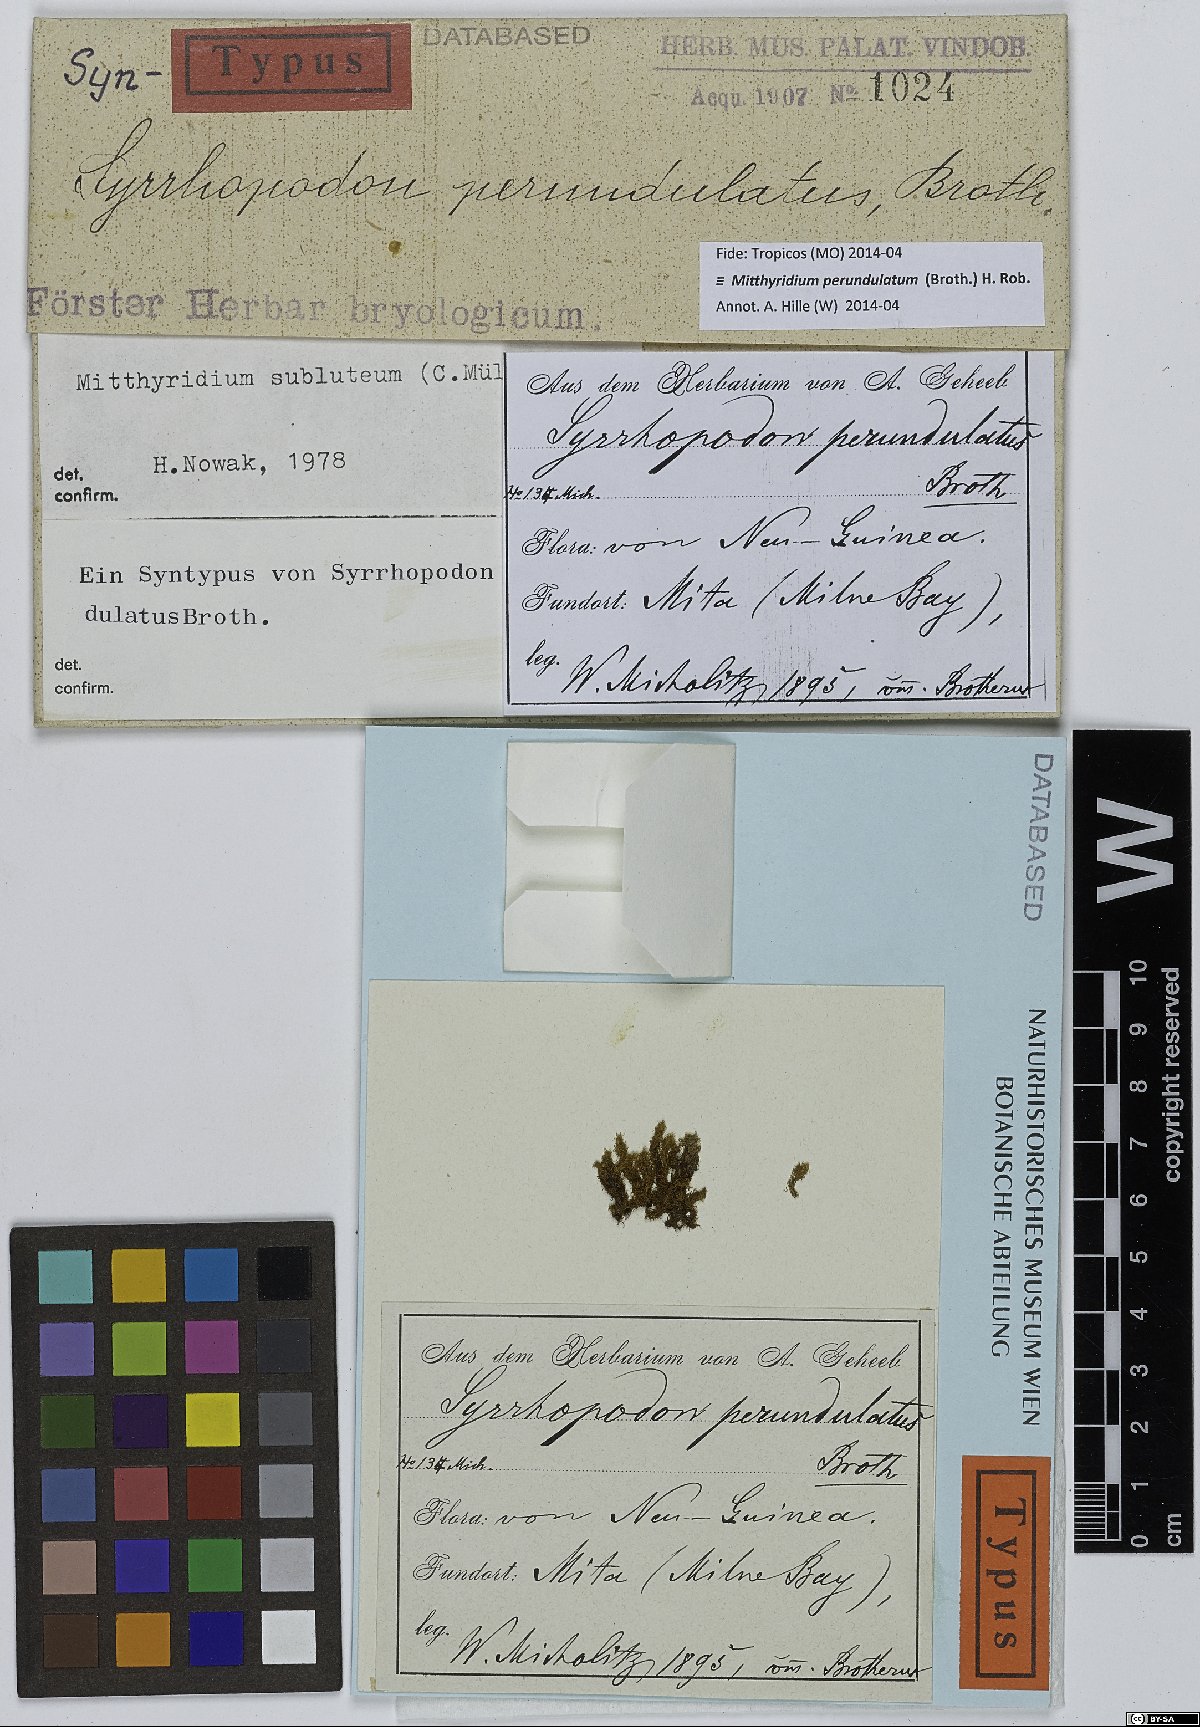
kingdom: Plantae
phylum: Bryophyta
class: Bryopsida
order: Dicranales
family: Calymperaceae
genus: Mitthyridium
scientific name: Mitthyridium jungquilianum
